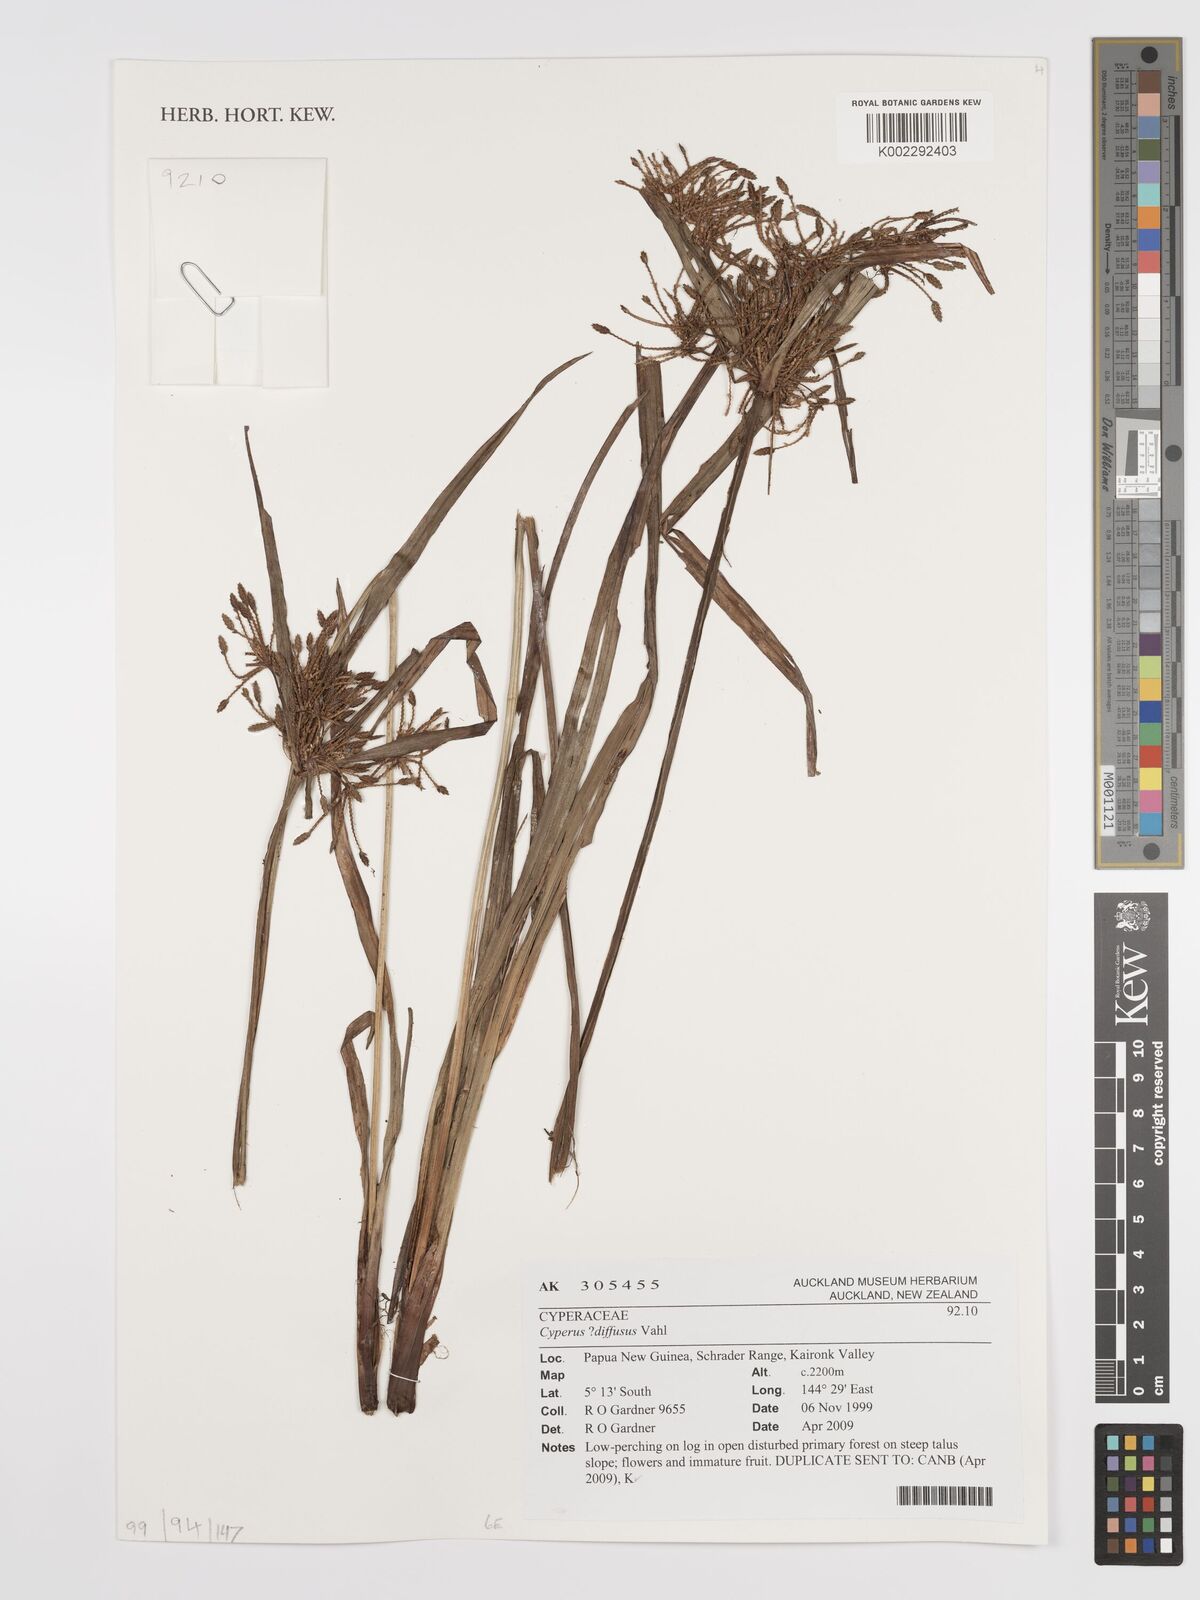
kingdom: Plantae
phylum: Tracheophyta
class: Liliopsida
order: Poales
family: Cyperaceae
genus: Cyperus
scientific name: Cyperus diffusus
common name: Dwarf umbrella grass
